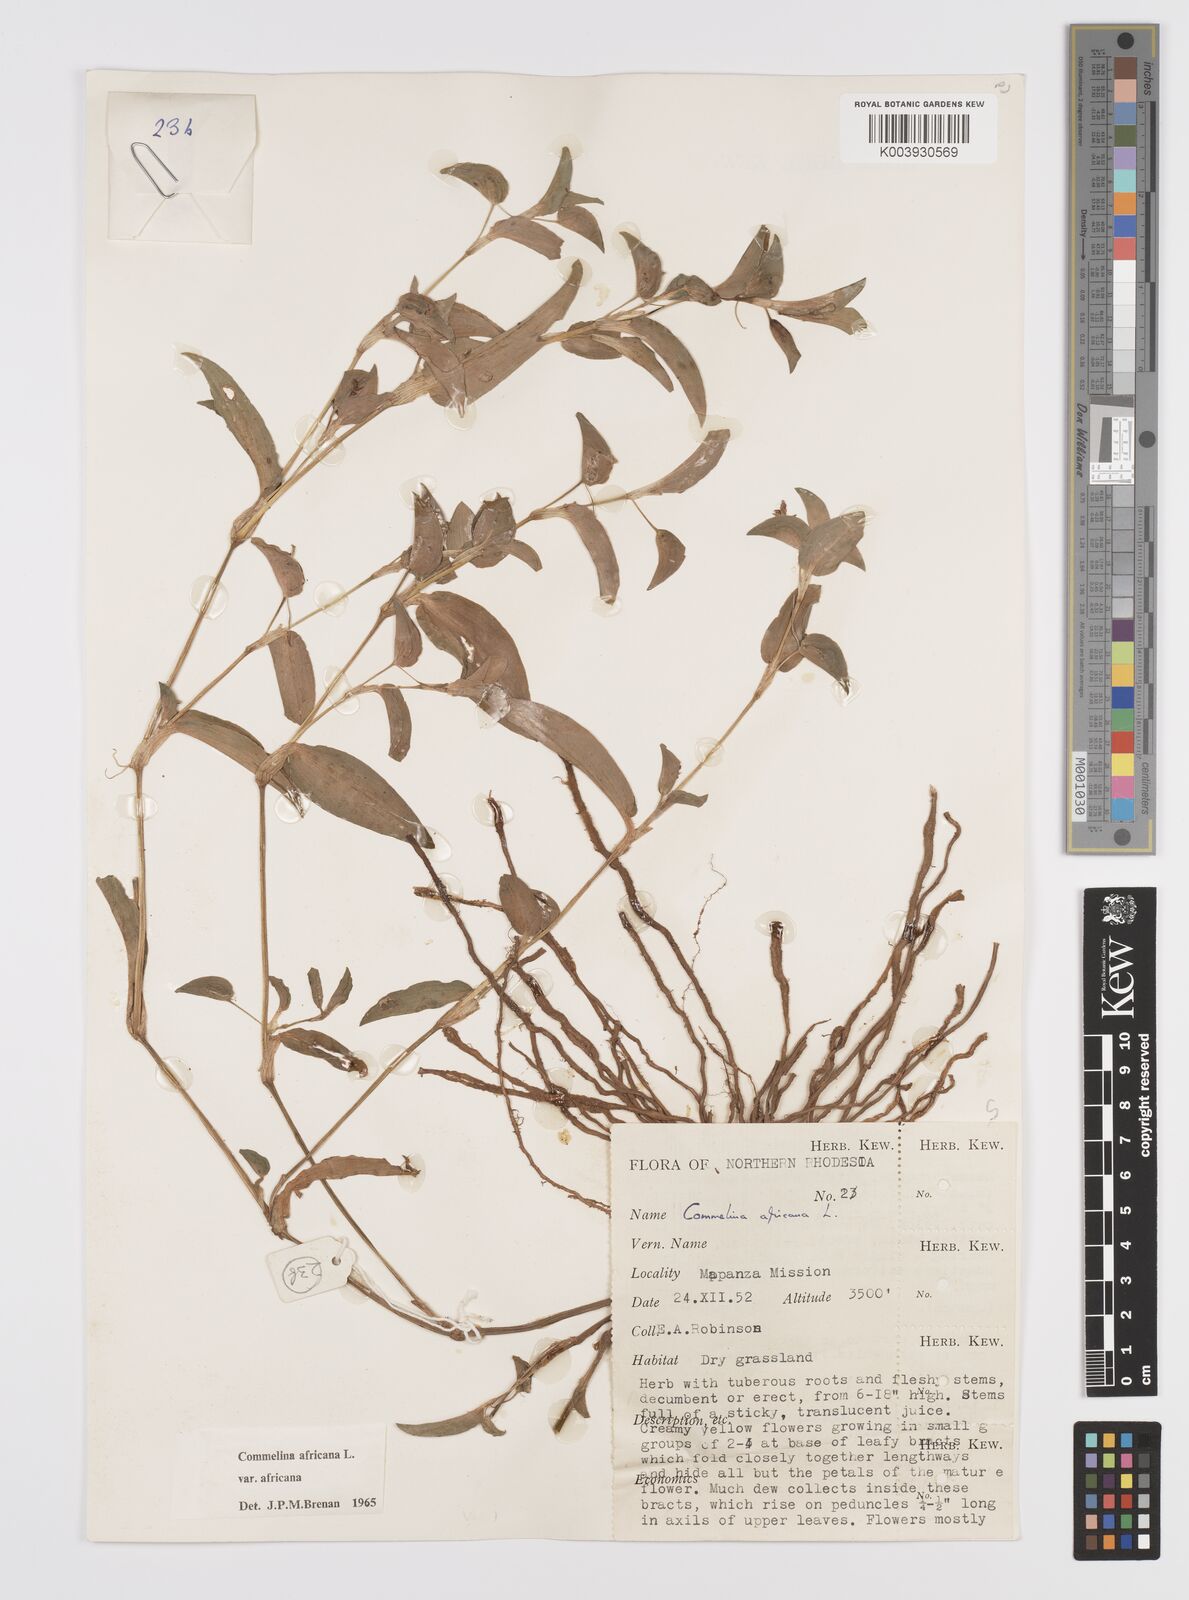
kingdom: Plantae
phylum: Tracheophyta
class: Liliopsida
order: Commelinales
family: Commelinaceae
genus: Commelina
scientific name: Commelina africana
